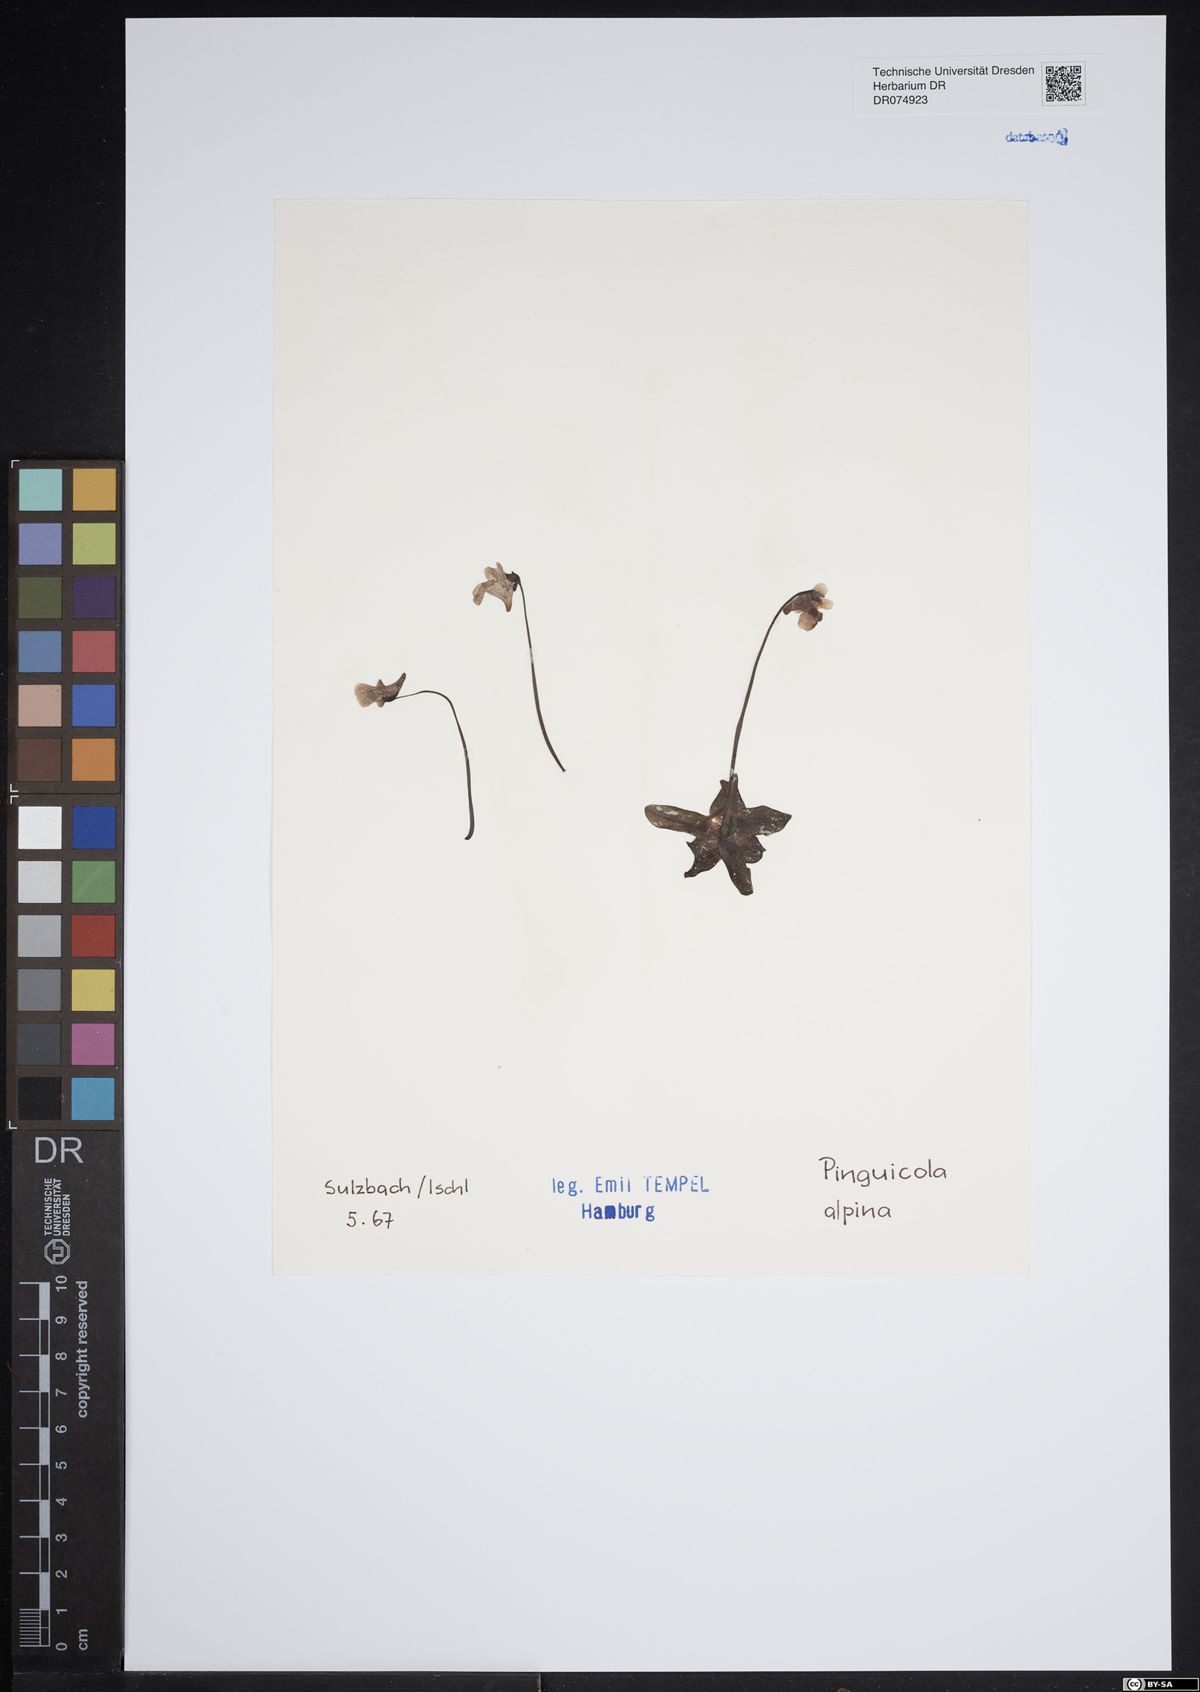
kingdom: Plantae
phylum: Tracheophyta
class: Magnoliopsida
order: Lamiales
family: Lentibulariaceae
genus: Pinguicula
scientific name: Pinguicula alpina
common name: Alpine butterwort
